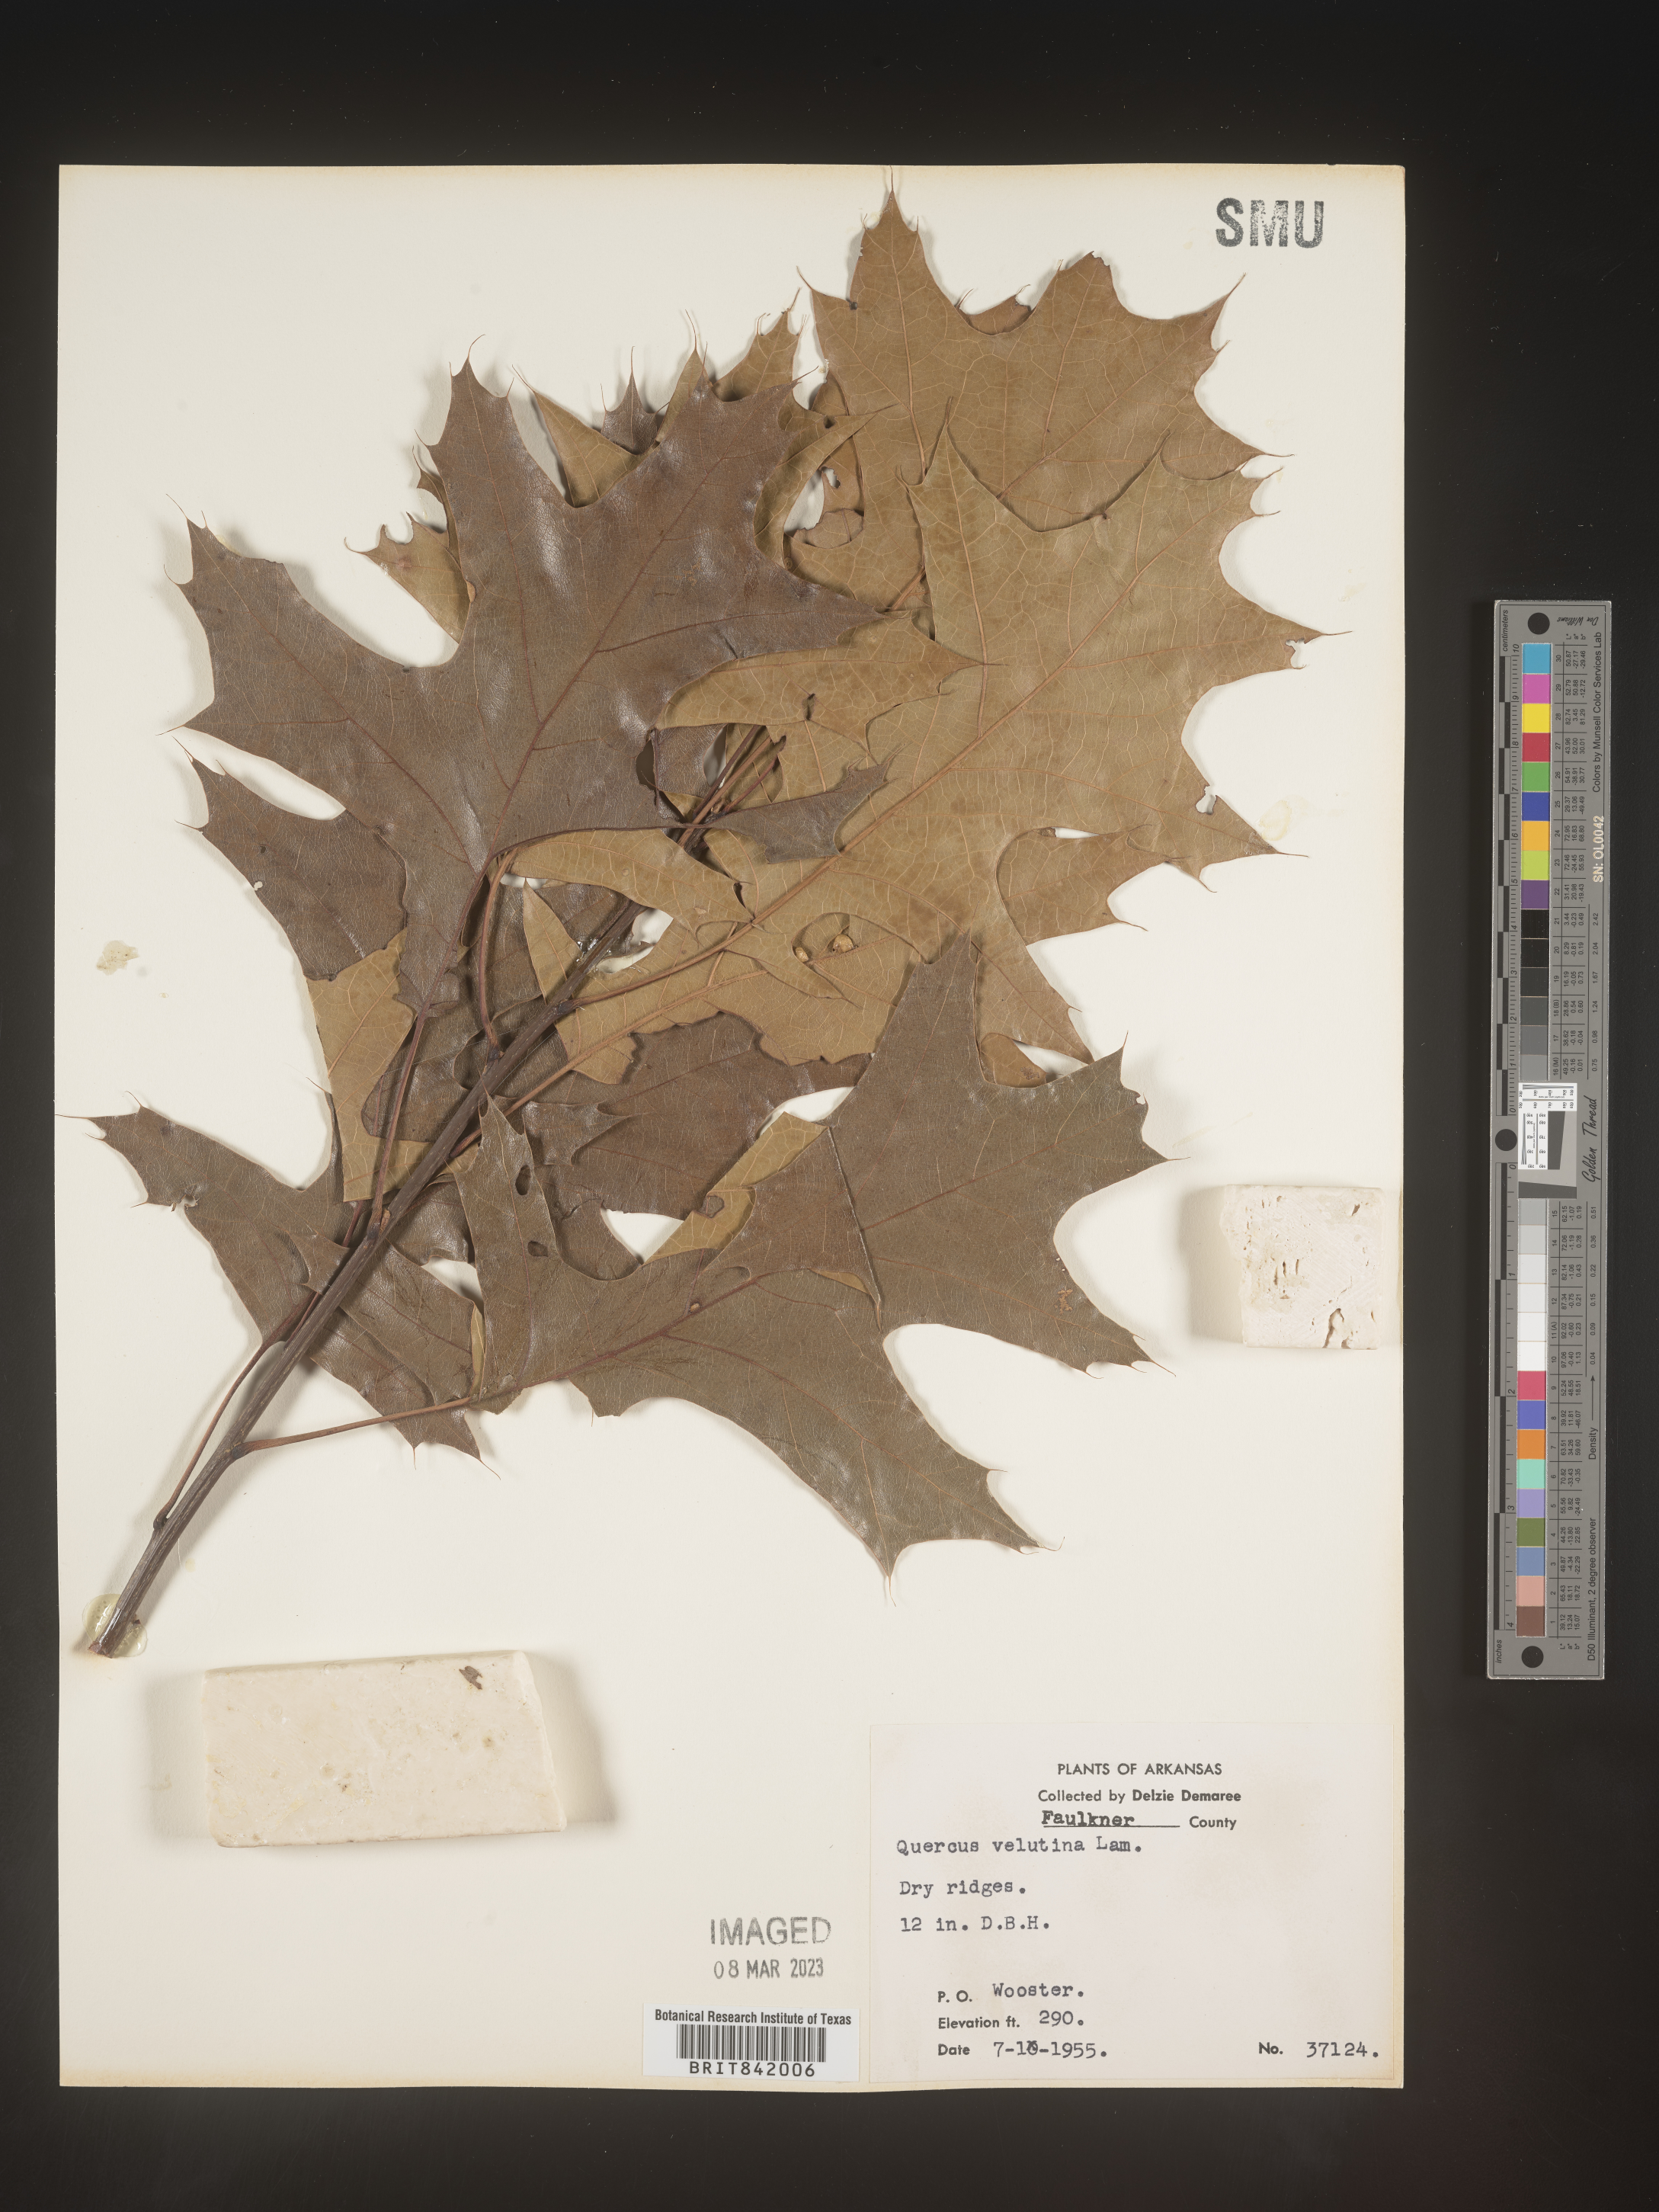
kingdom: Plantae
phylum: Tracheophyta
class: Magnoliopsida
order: Fagales
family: Fagaceae
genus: Quercus
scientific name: Quercus velutina
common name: Black oak
